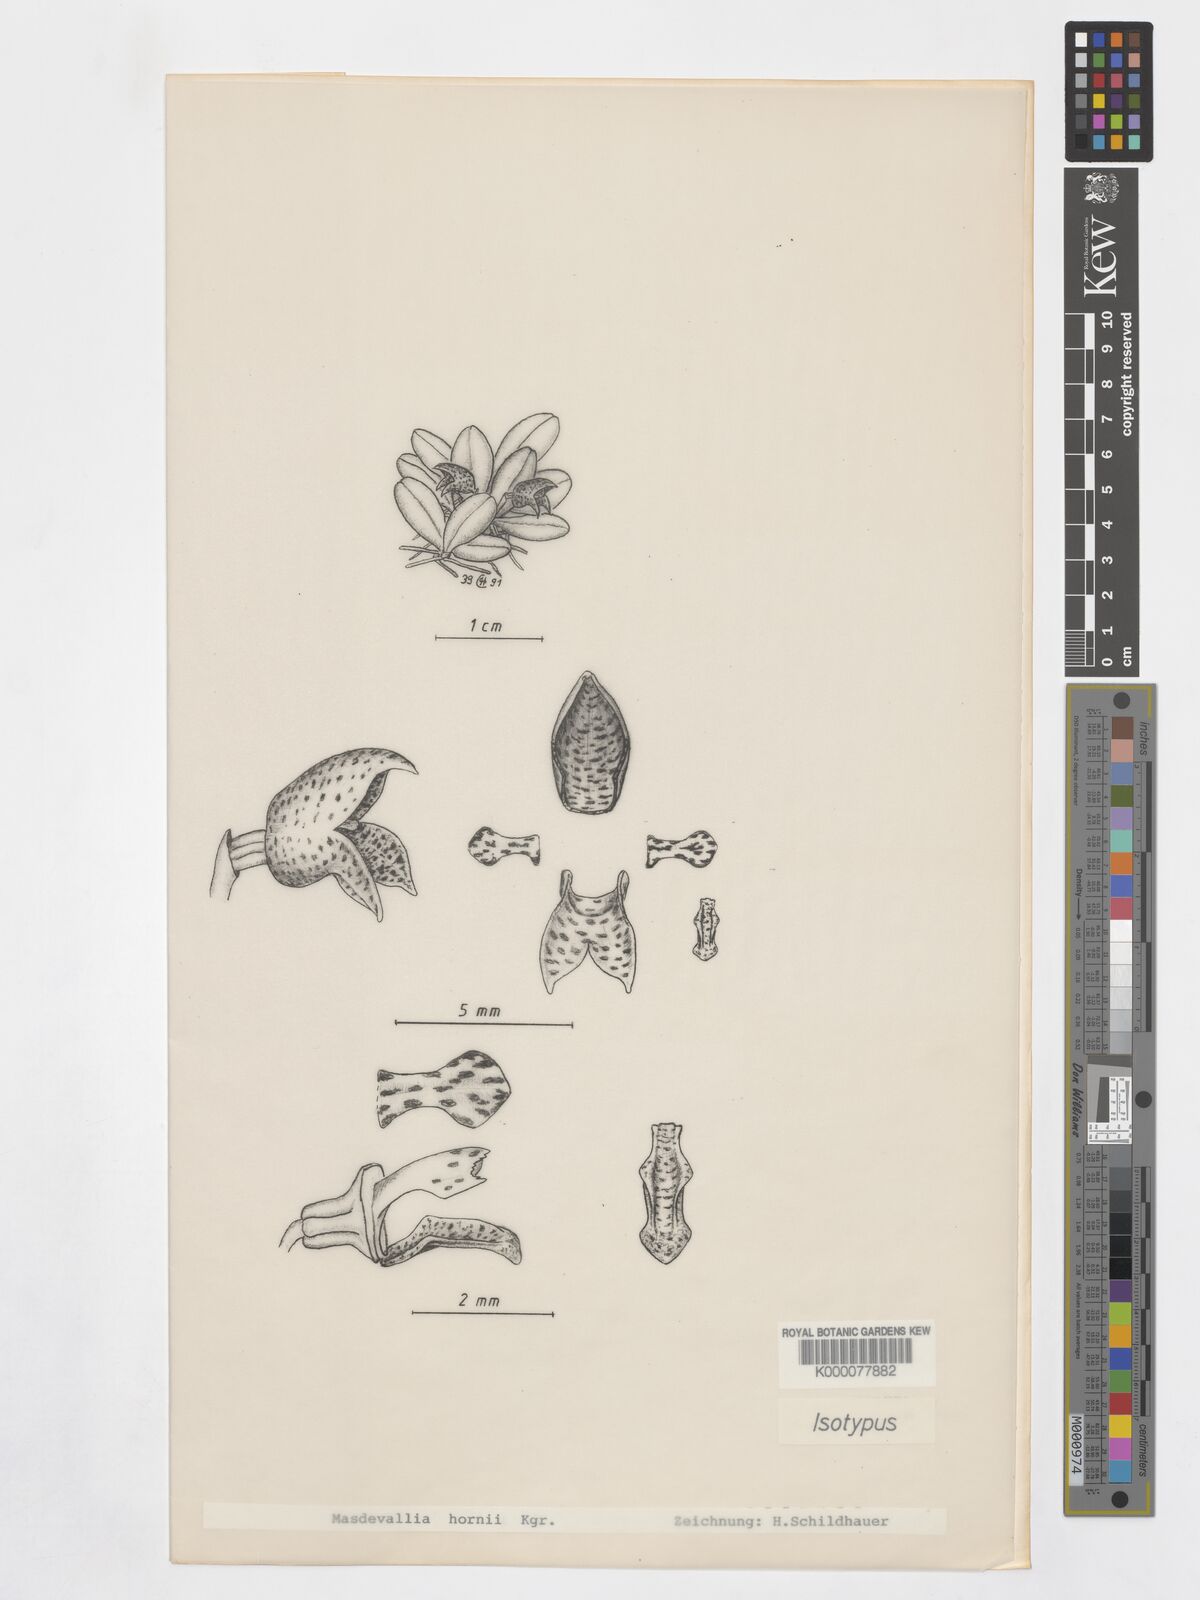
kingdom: Plantae
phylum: Tracheophyta
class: Liliopsida
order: Asparagales
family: Orchidaceae
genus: Masdevallia
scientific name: Masdevallia
